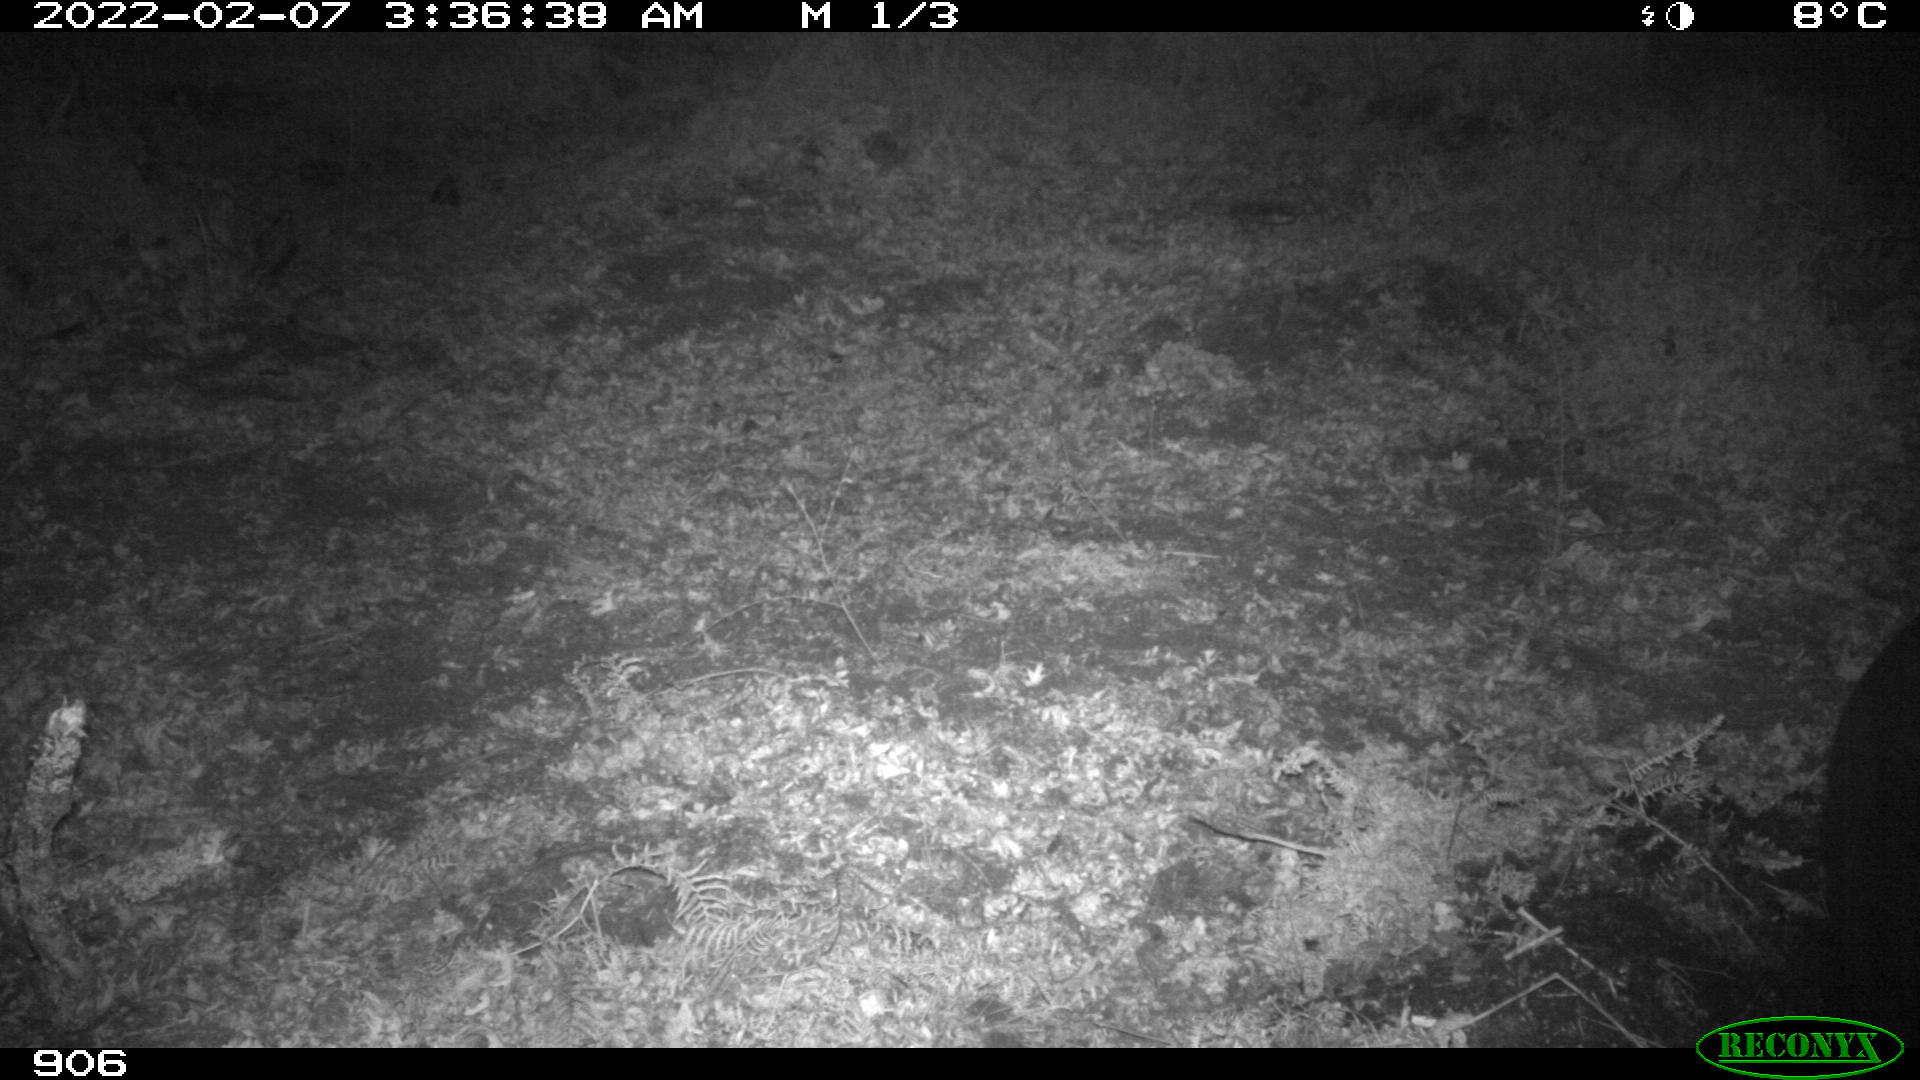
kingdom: Animalia
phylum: Chordata
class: Mammalia
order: Artiodactyla
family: Suidae
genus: Sus
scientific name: Sus scrofa
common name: Wild boar
